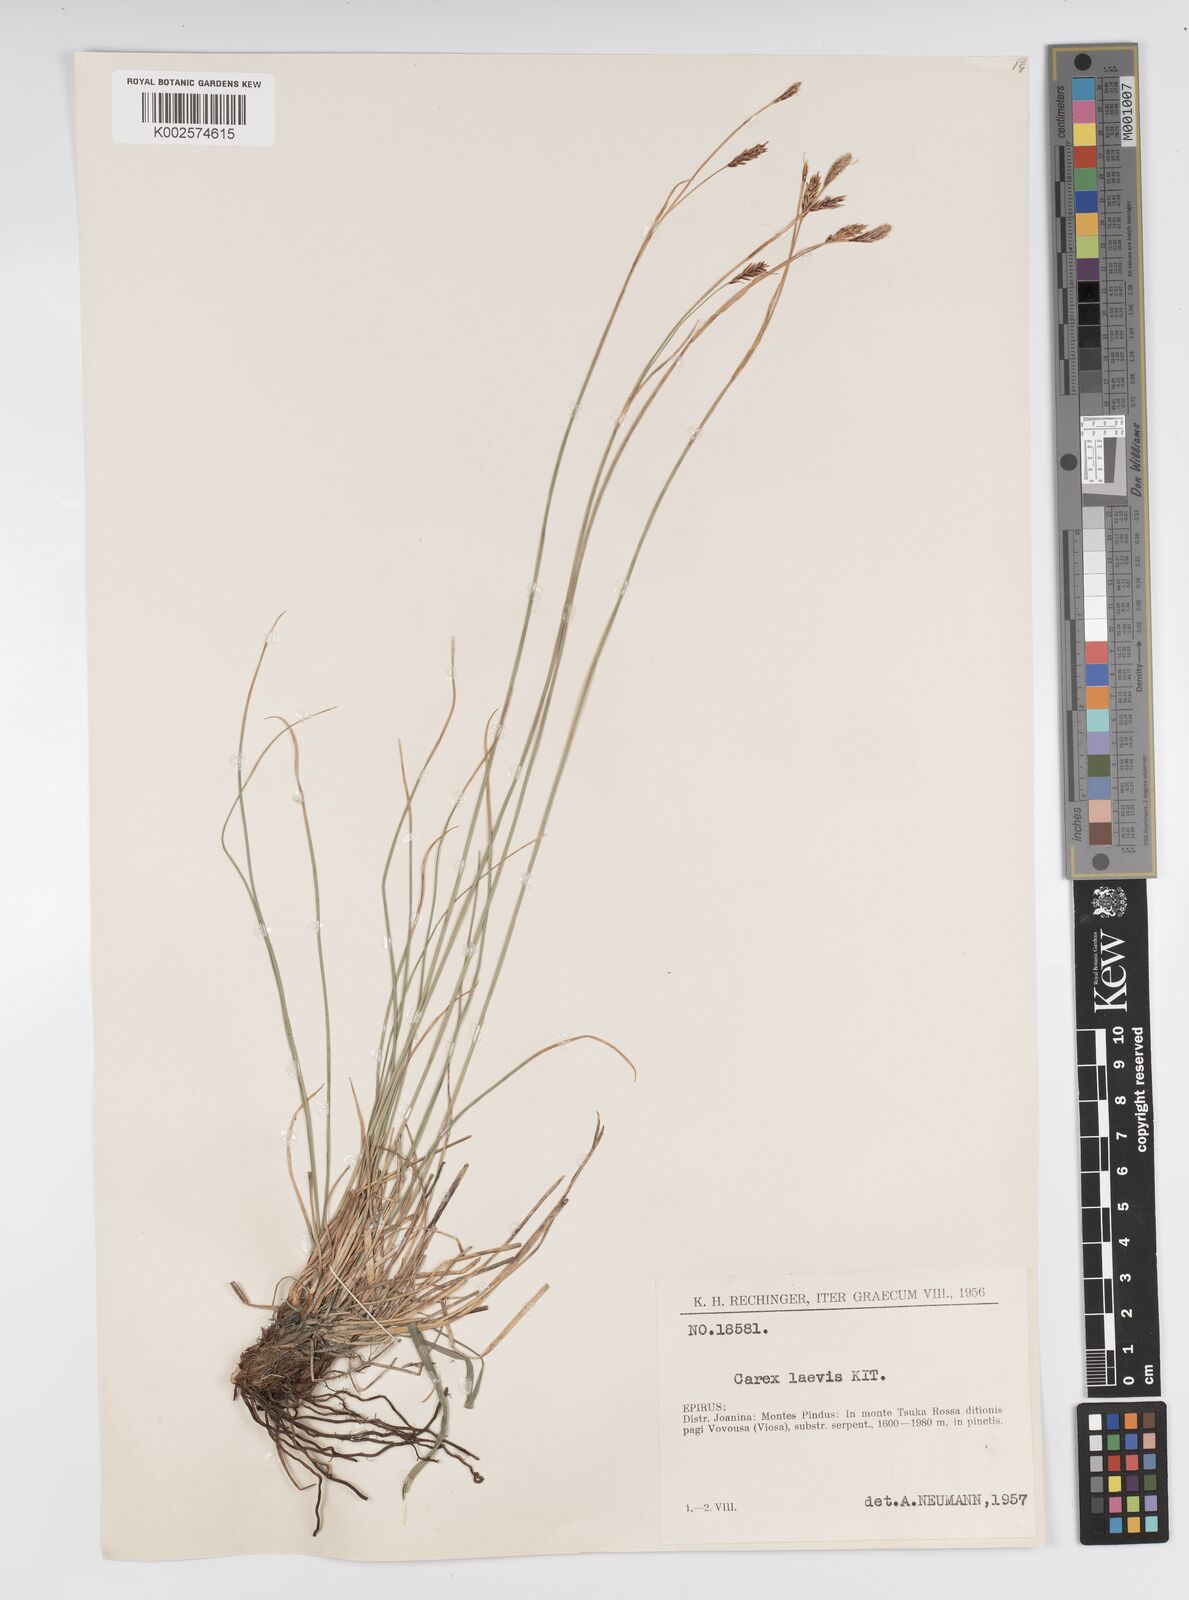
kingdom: Plantae
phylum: Tracheophyta
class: Liliopsida
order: Poales
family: Cyperaceae
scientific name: Cyperaceae
